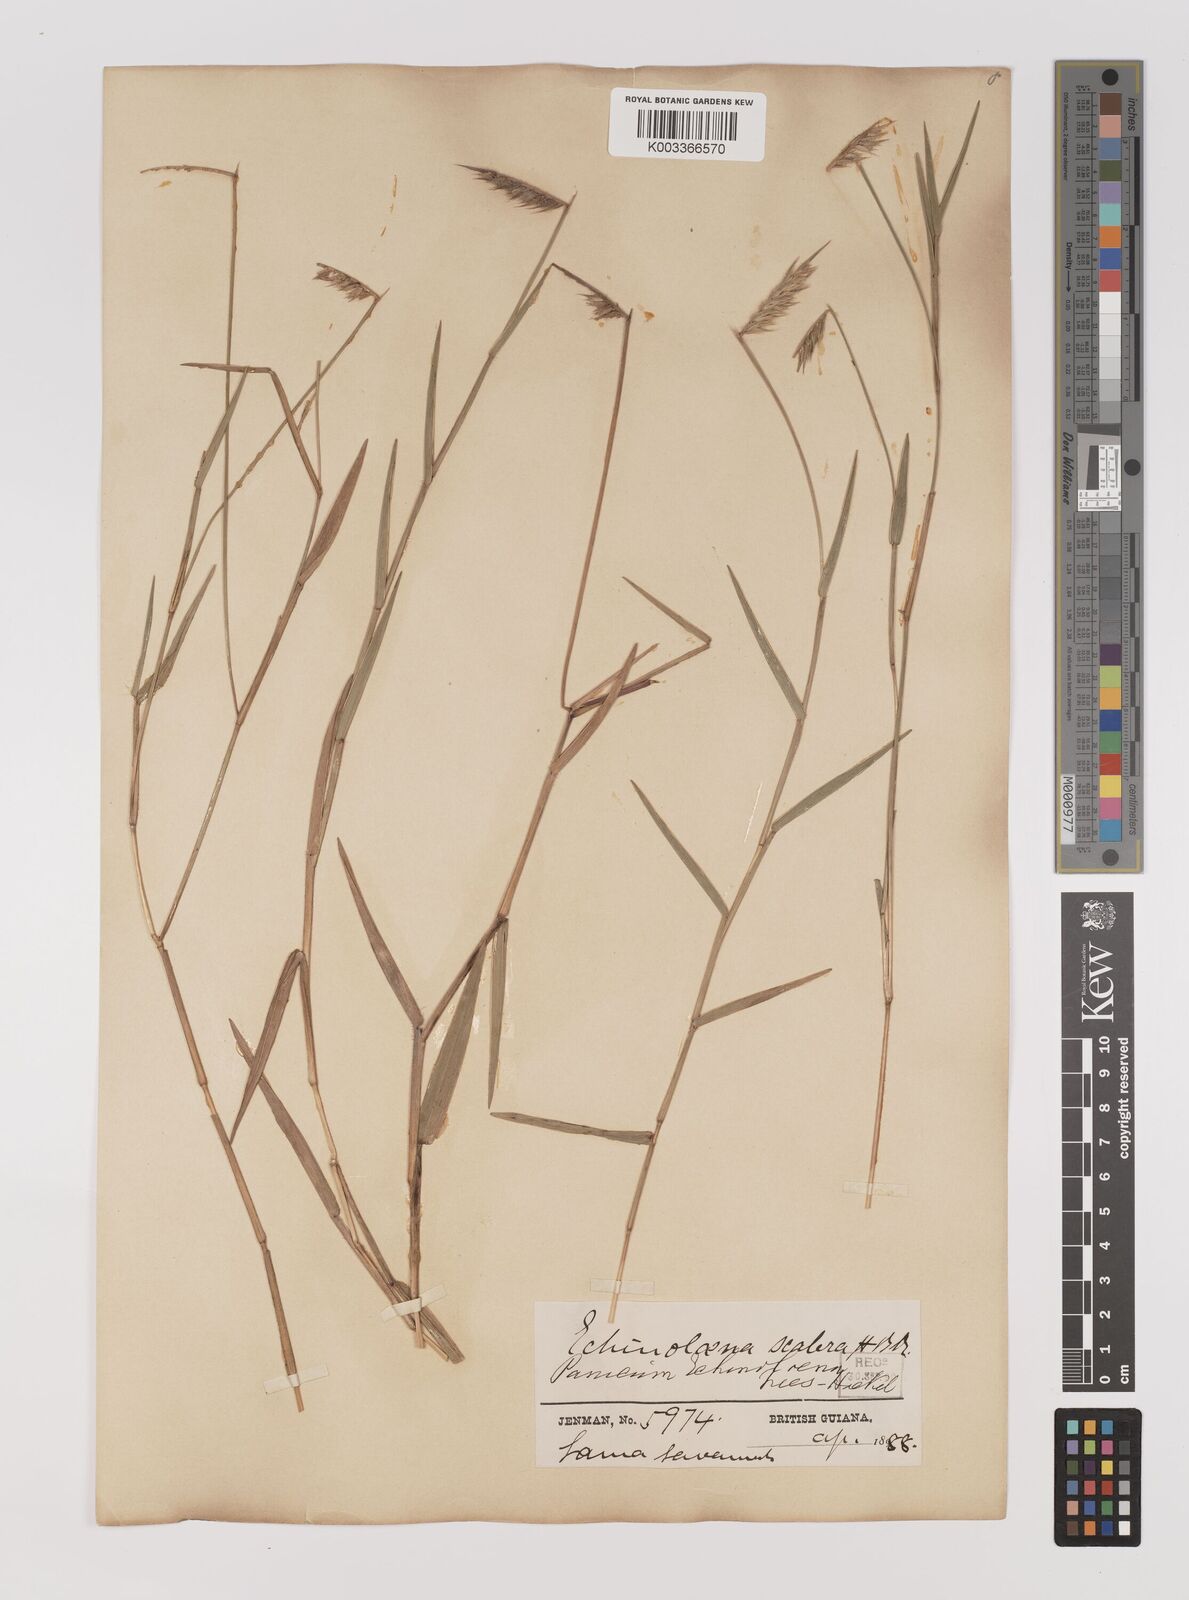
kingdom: Plantae
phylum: Tracheophyta
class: Liliopsida
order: Poales
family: Poaceae
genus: Echinolaena
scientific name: Echinolaena inflexa
